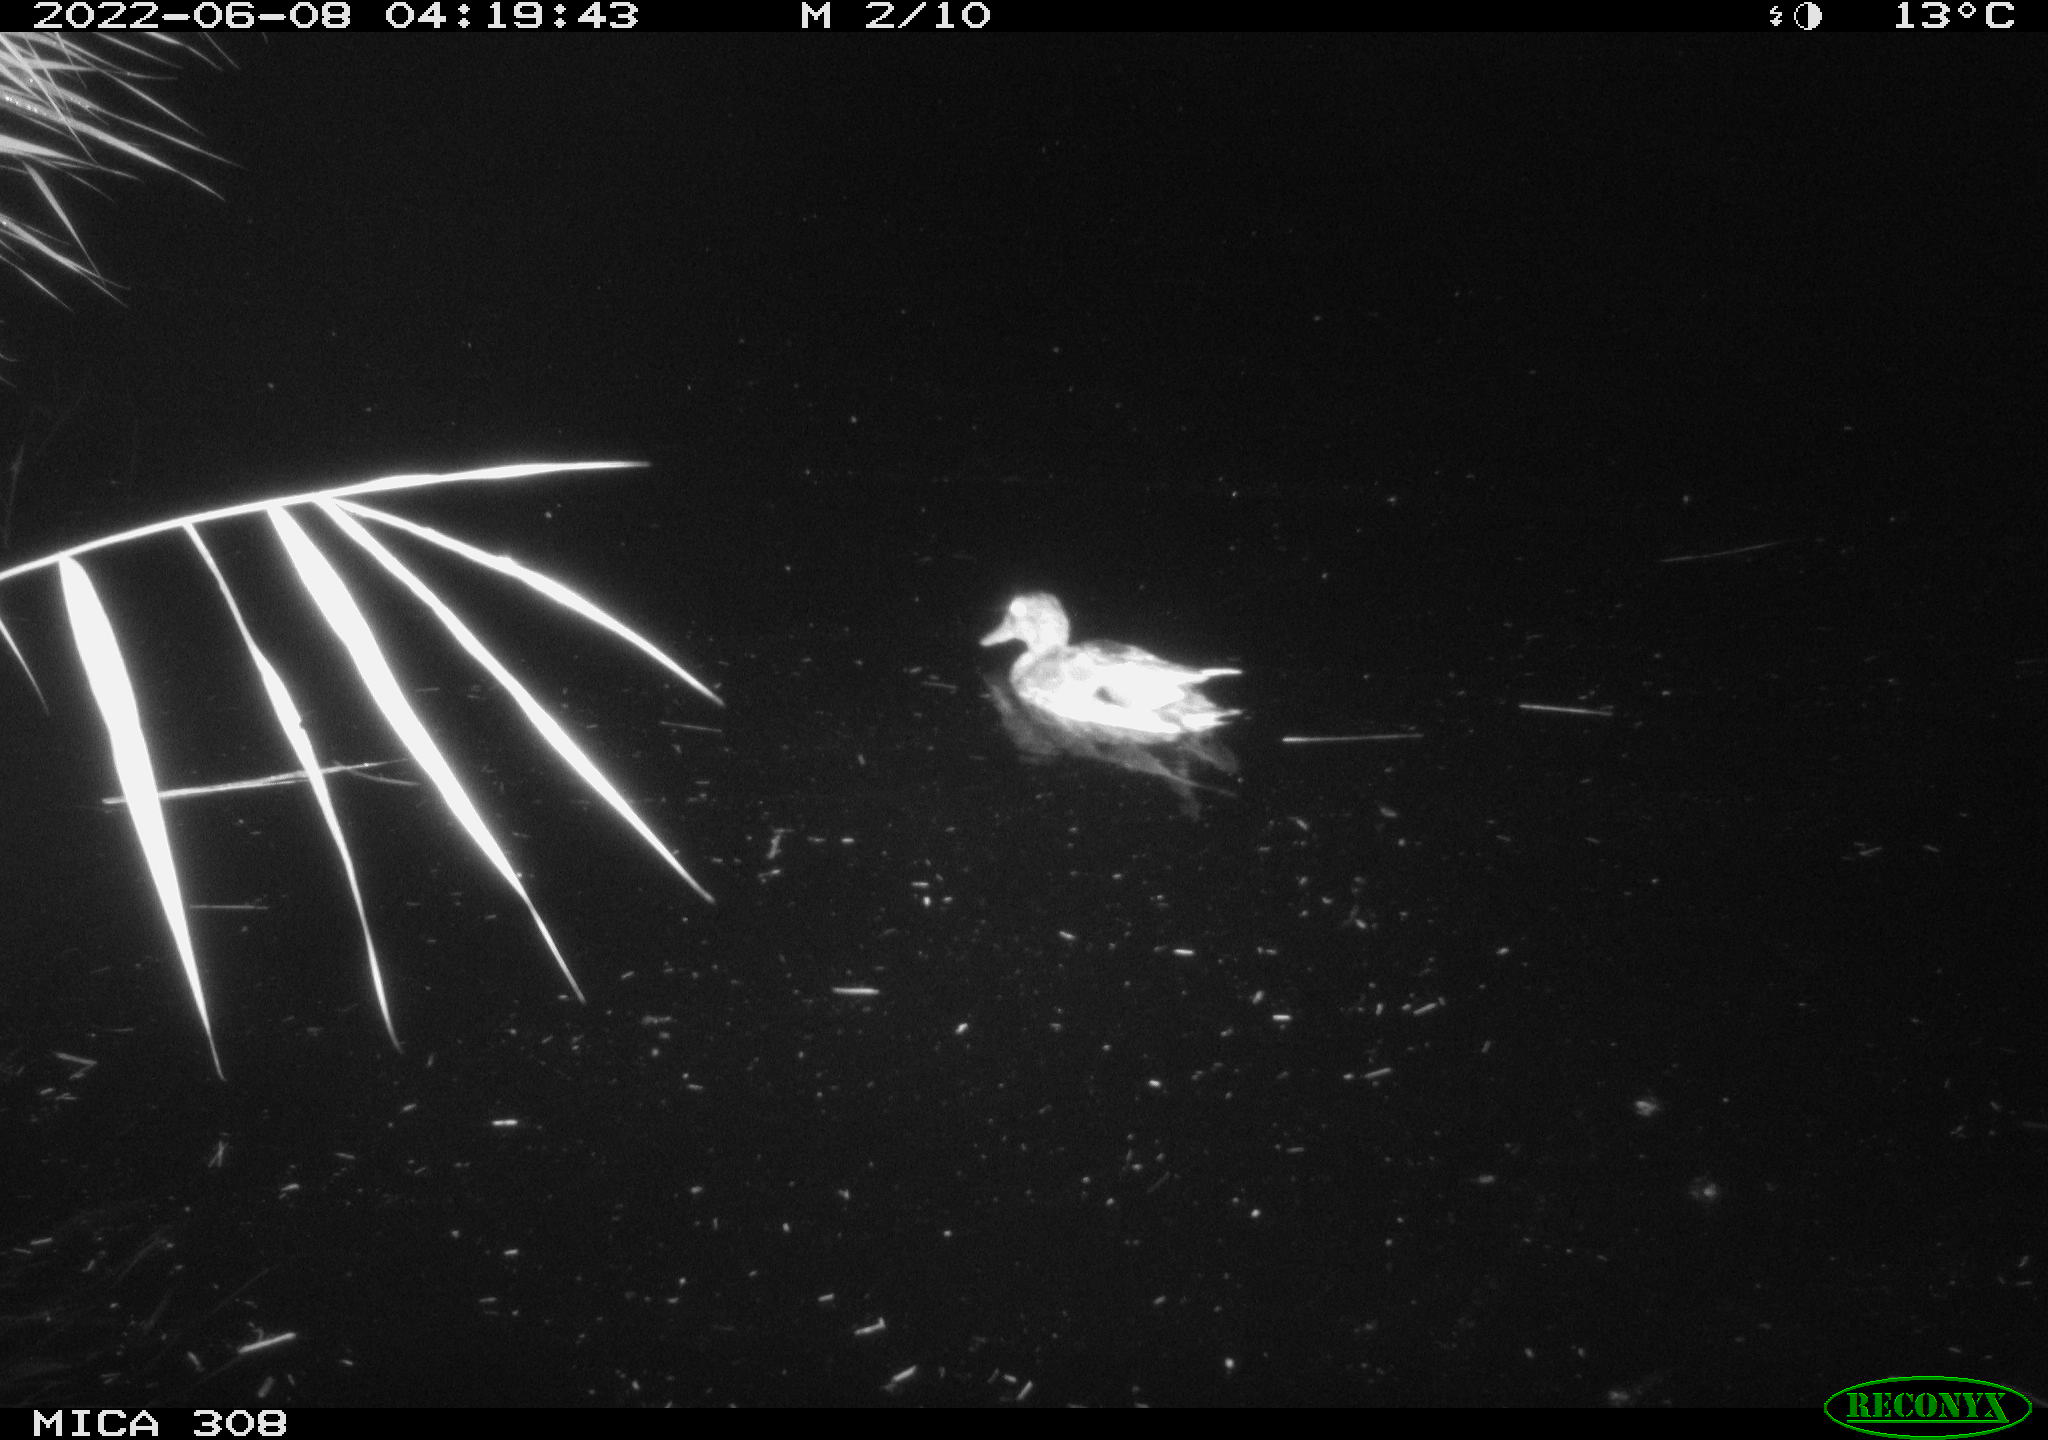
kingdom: Animalia
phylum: Chordata
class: Aves
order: Anseriformes
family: Anatidae
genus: Anas
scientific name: Anas platyrhynchos
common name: Mallard
